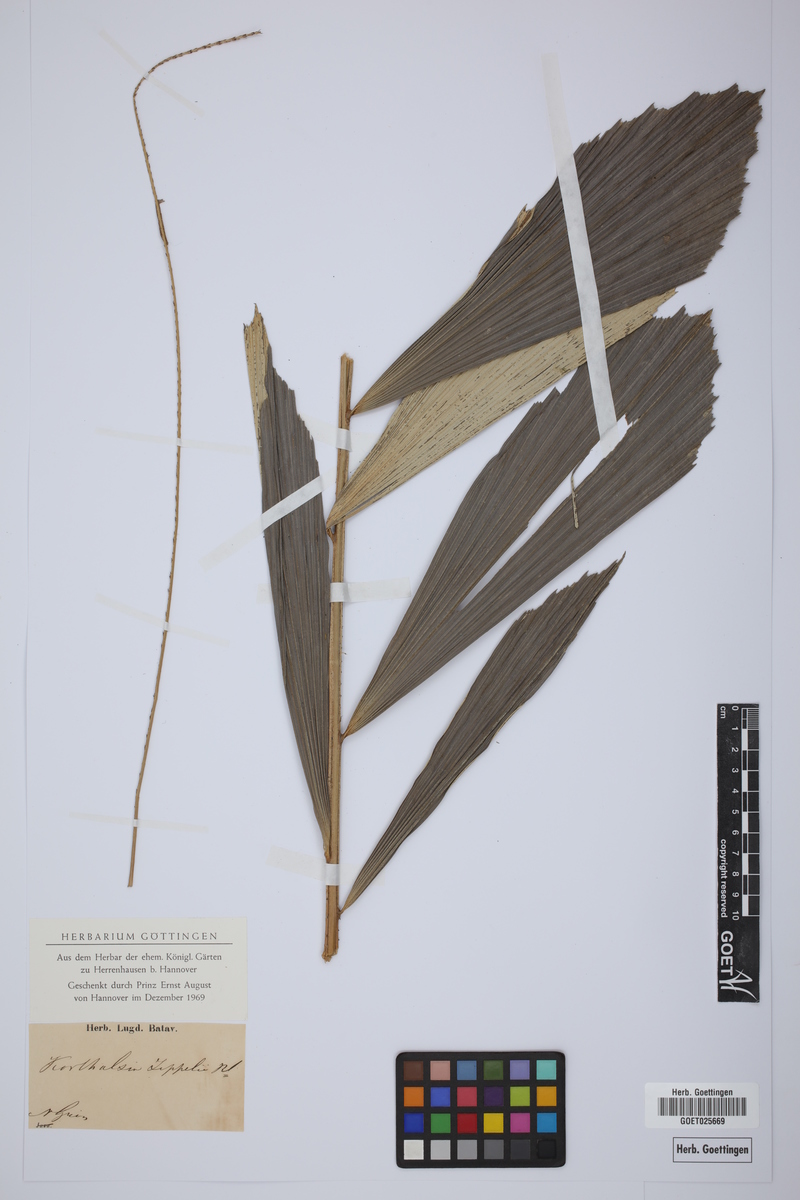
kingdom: Plantae
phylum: Tracheophyta
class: Liliopsida
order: Arecales
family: Arecaceae
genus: Korthalsia
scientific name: Korthalsia zippelii
